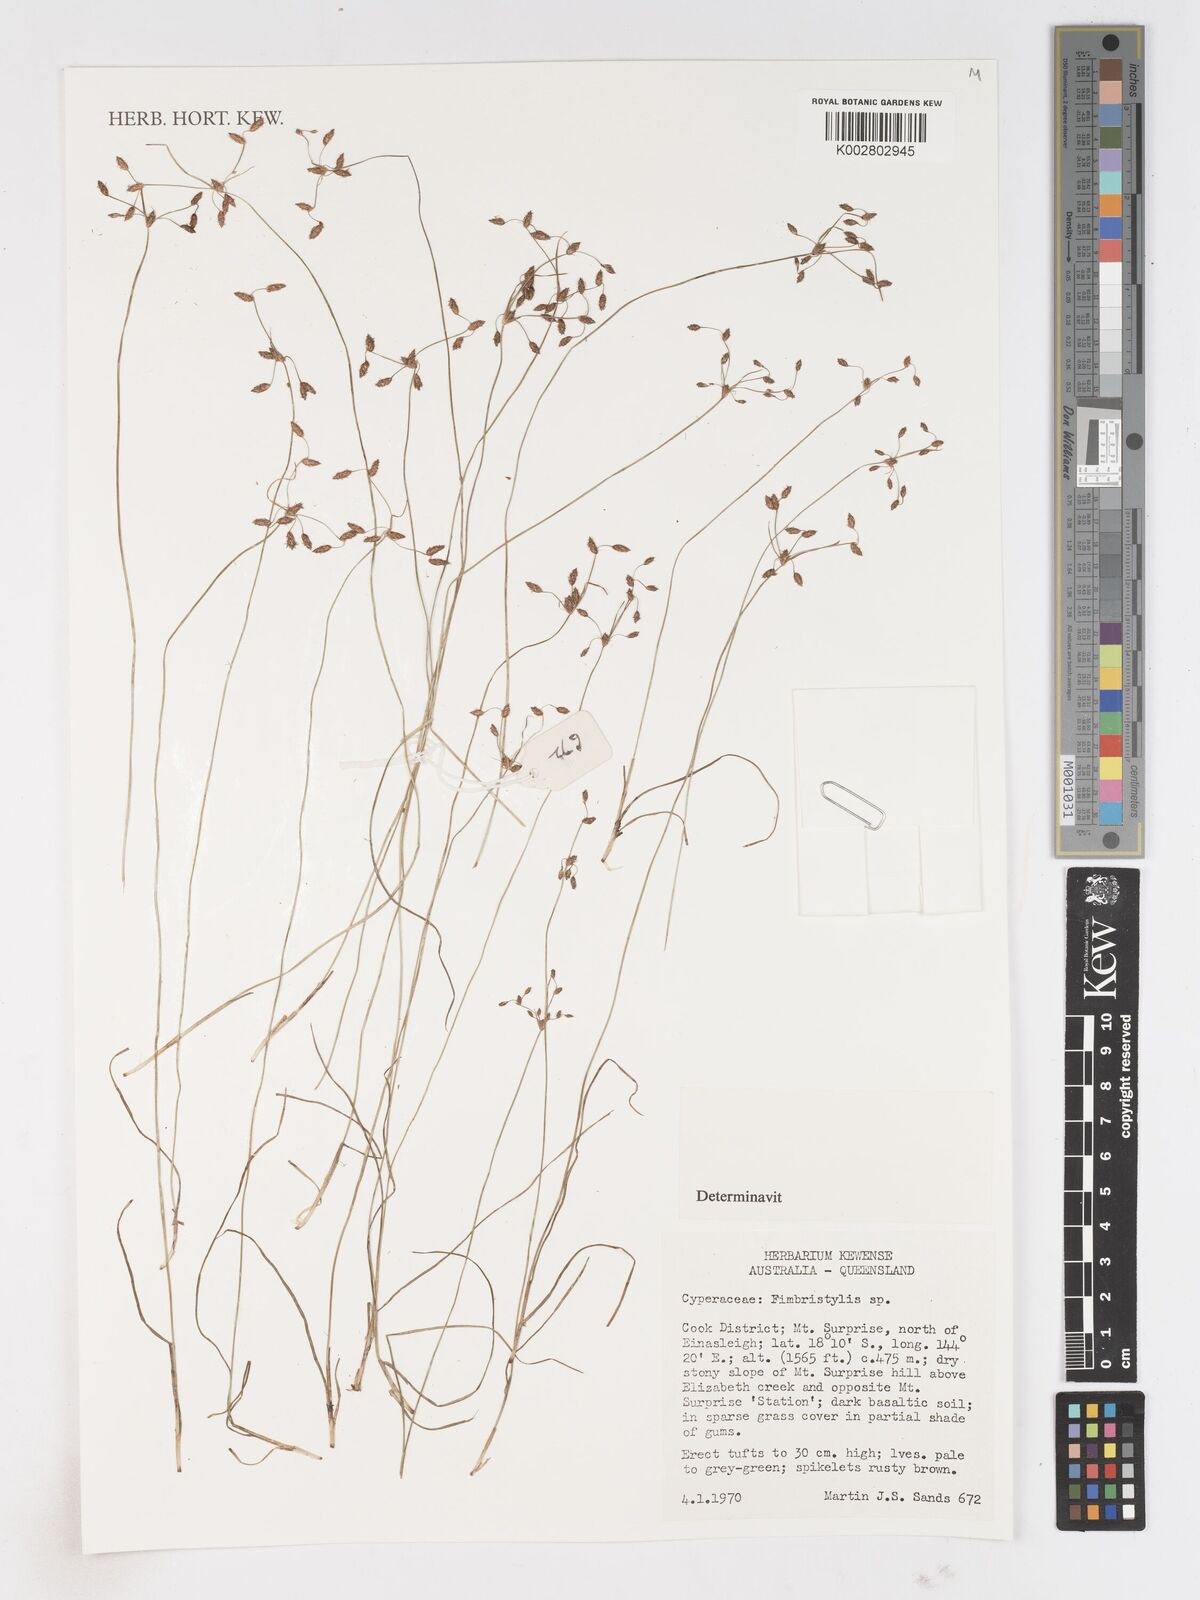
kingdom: Plantae
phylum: Tracheophyta
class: Liliopsida
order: Poales
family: Cyperaceae
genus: Fimbristylis
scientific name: Fimbristylis
